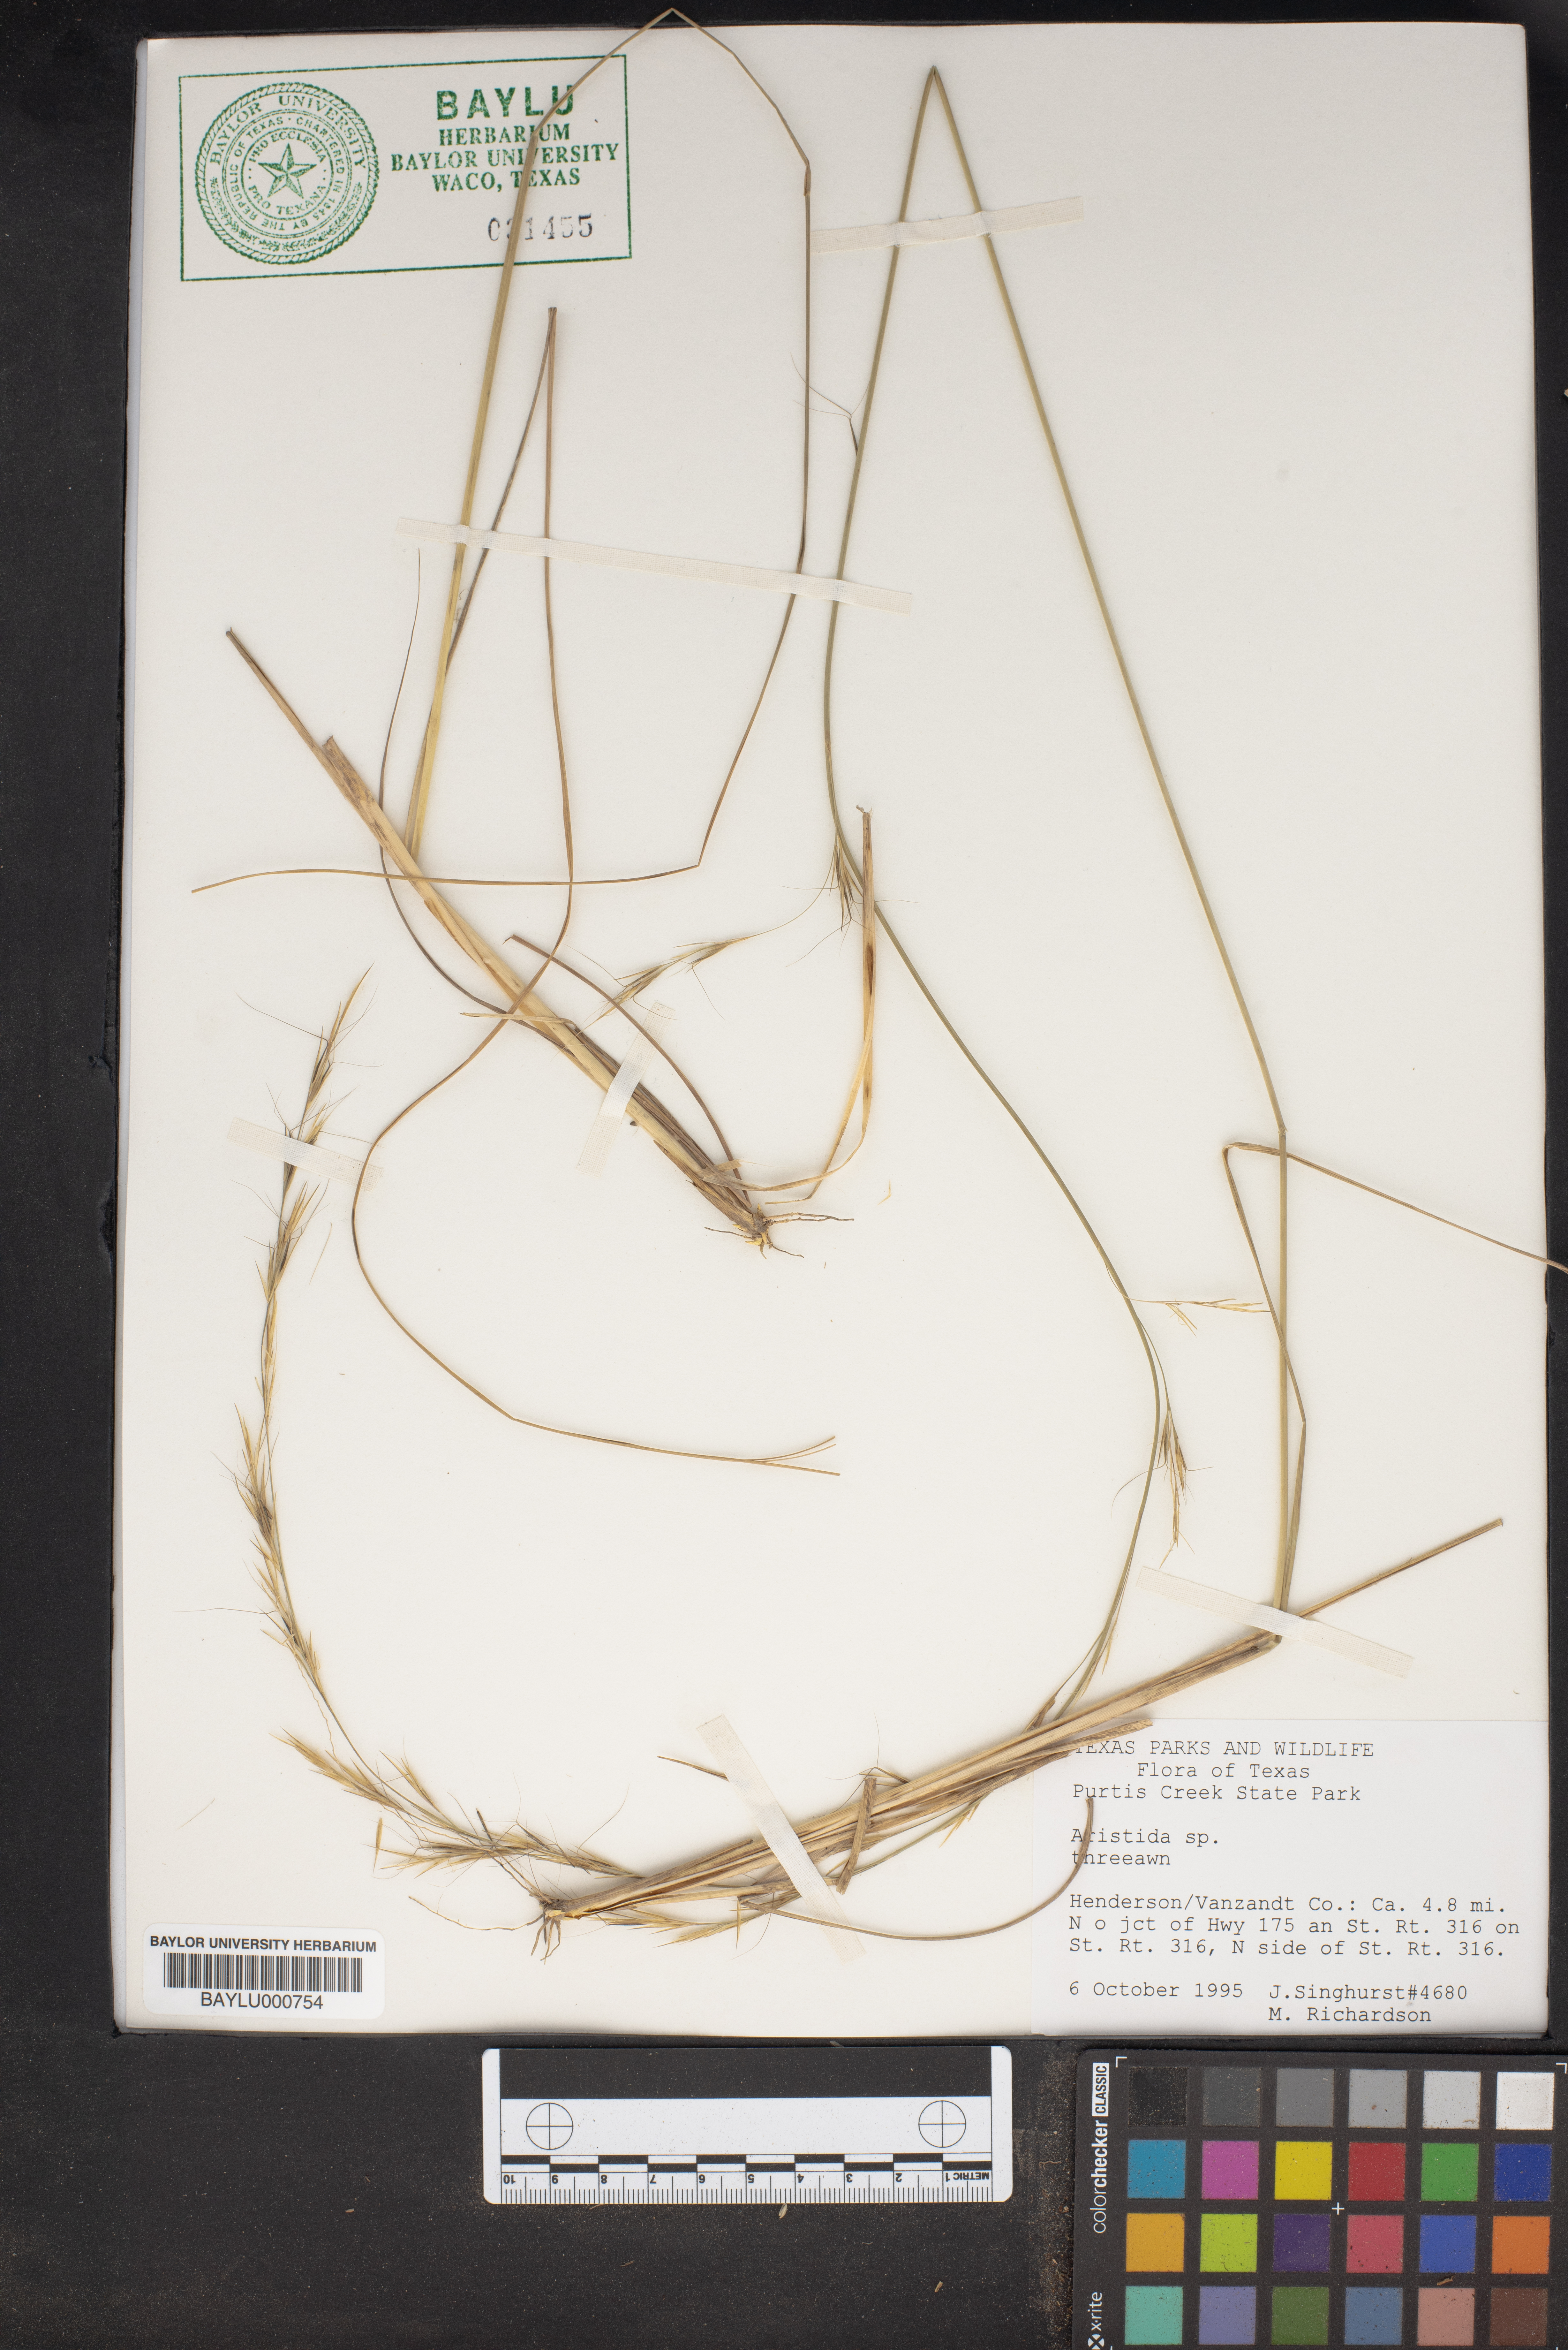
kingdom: Plantae
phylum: Tracheophyta
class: Liliopsida
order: Poales
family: Poaceae
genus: Aristida
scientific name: Aristida
